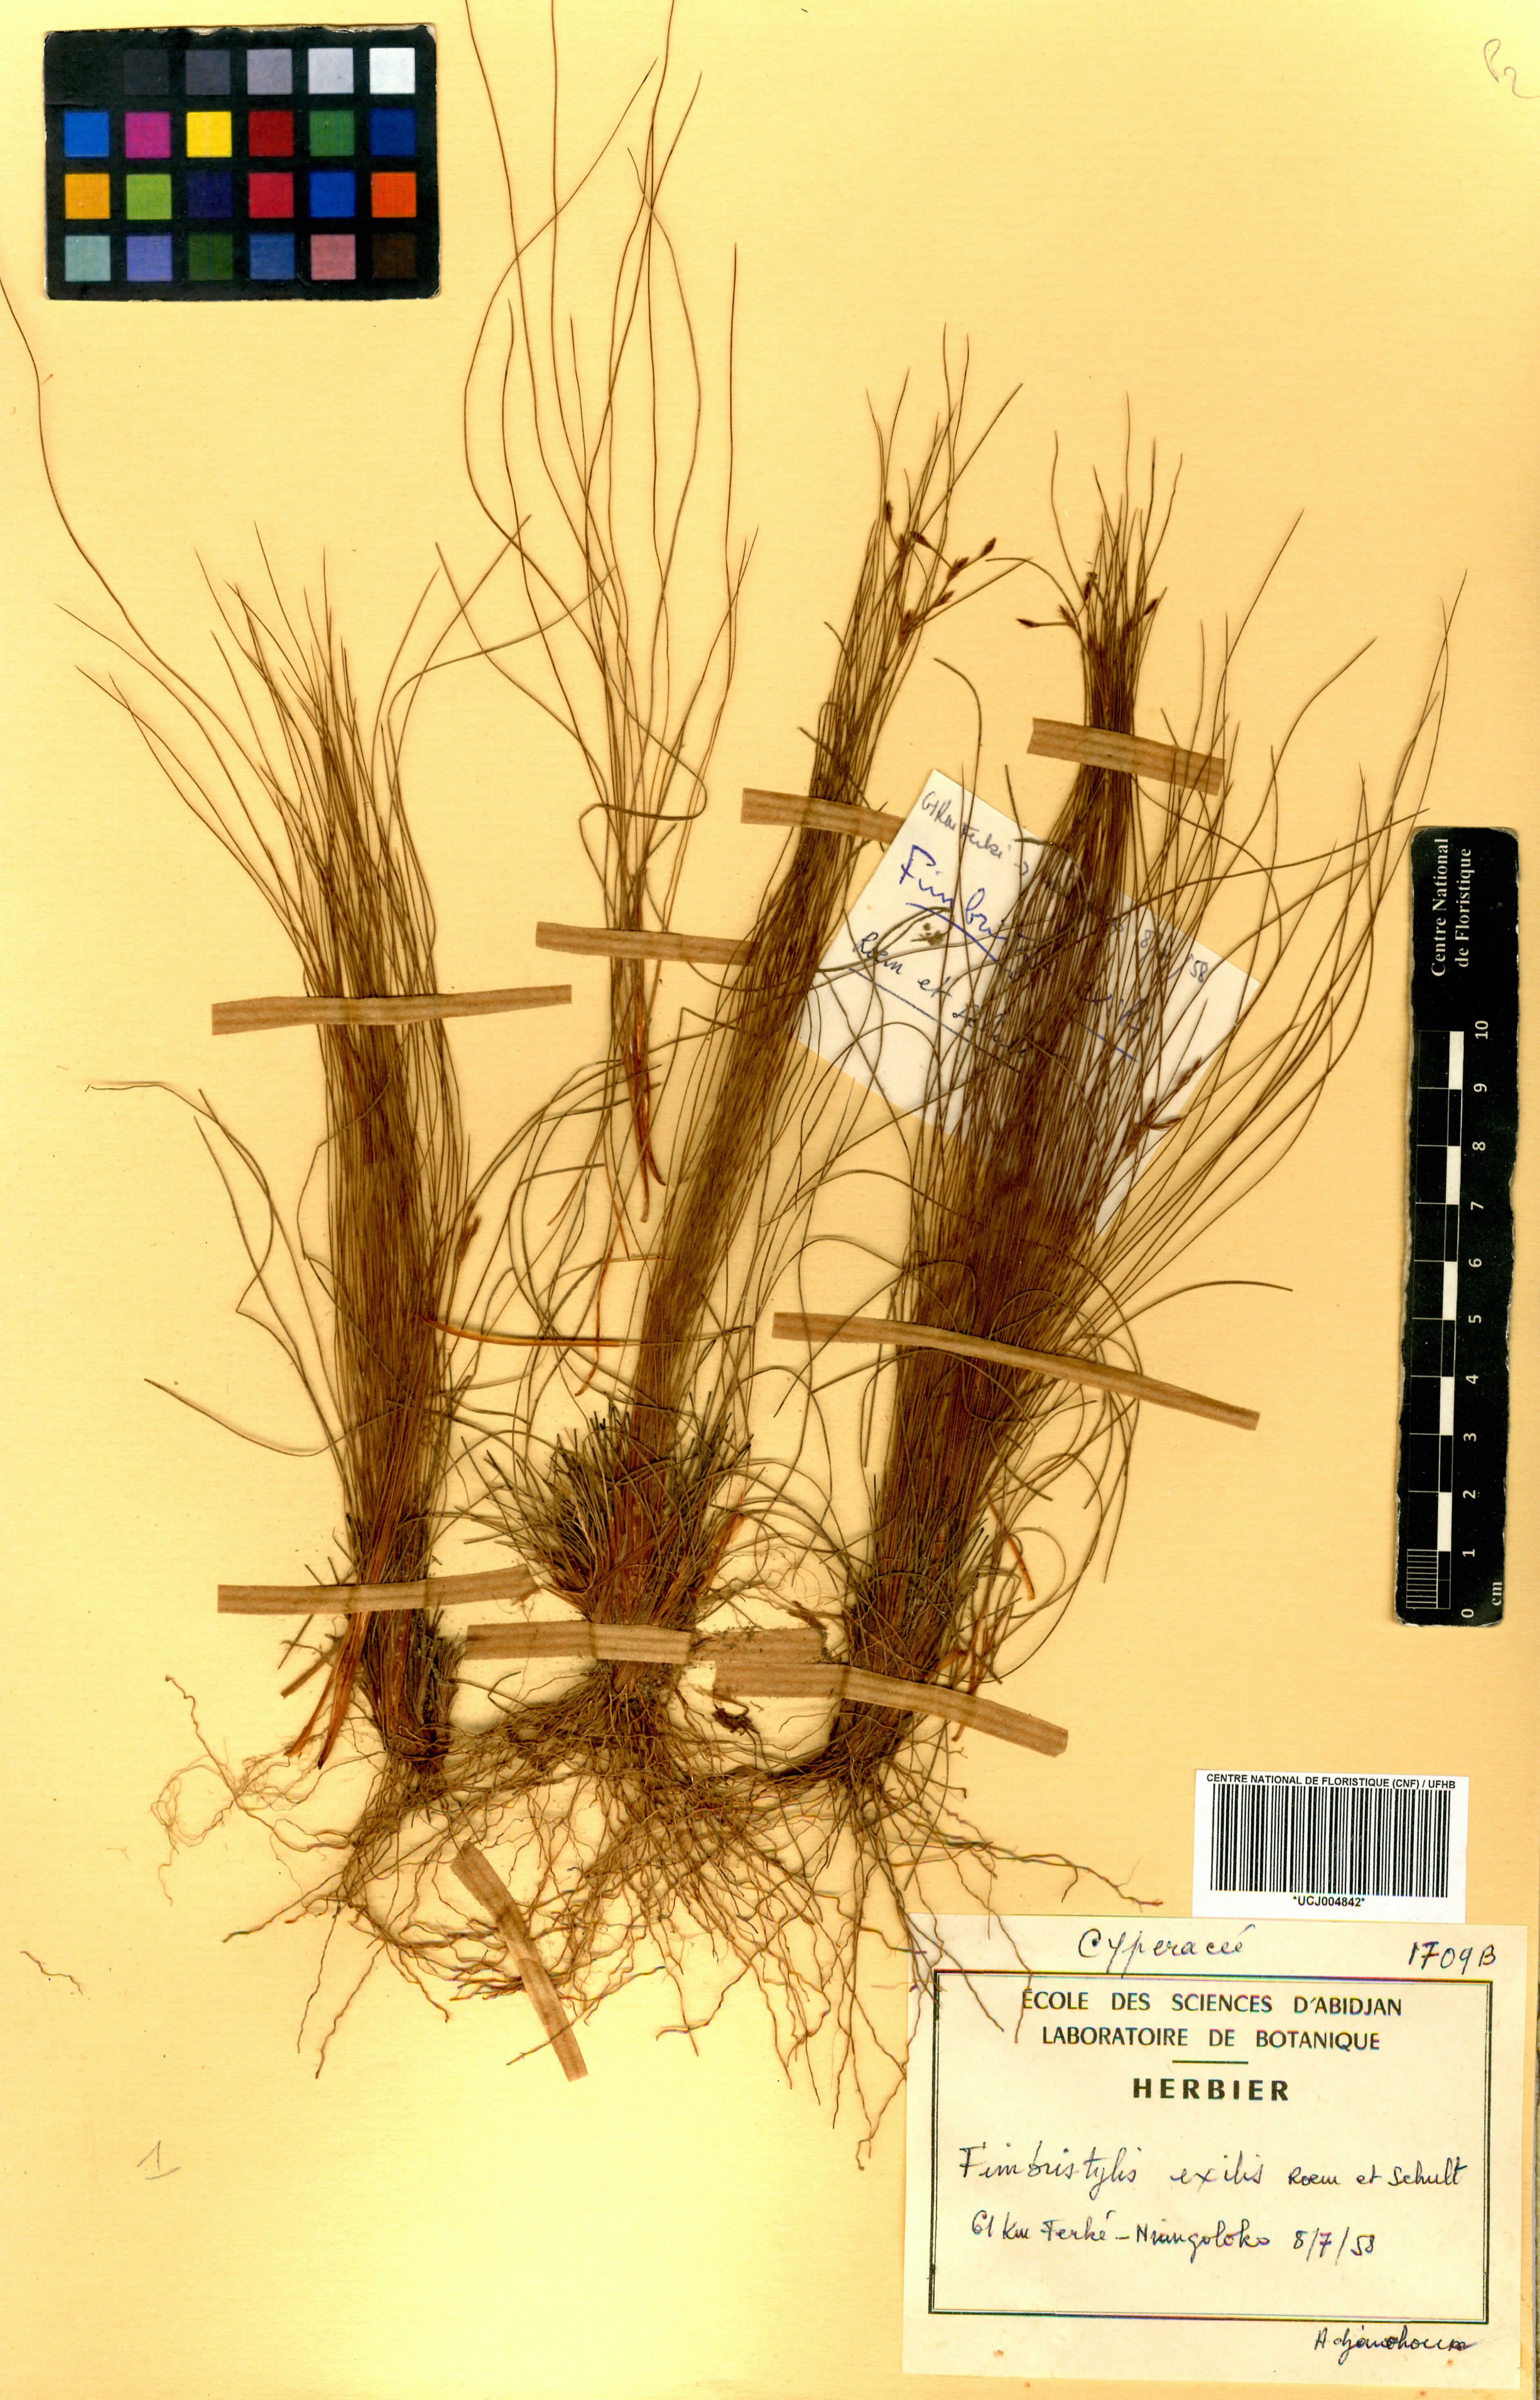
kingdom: Plantae
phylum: Tracheophyta
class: Liliopsida
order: Poales
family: Cyperaceae
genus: Bulbostylis
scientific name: Bulbostylis hispidula
